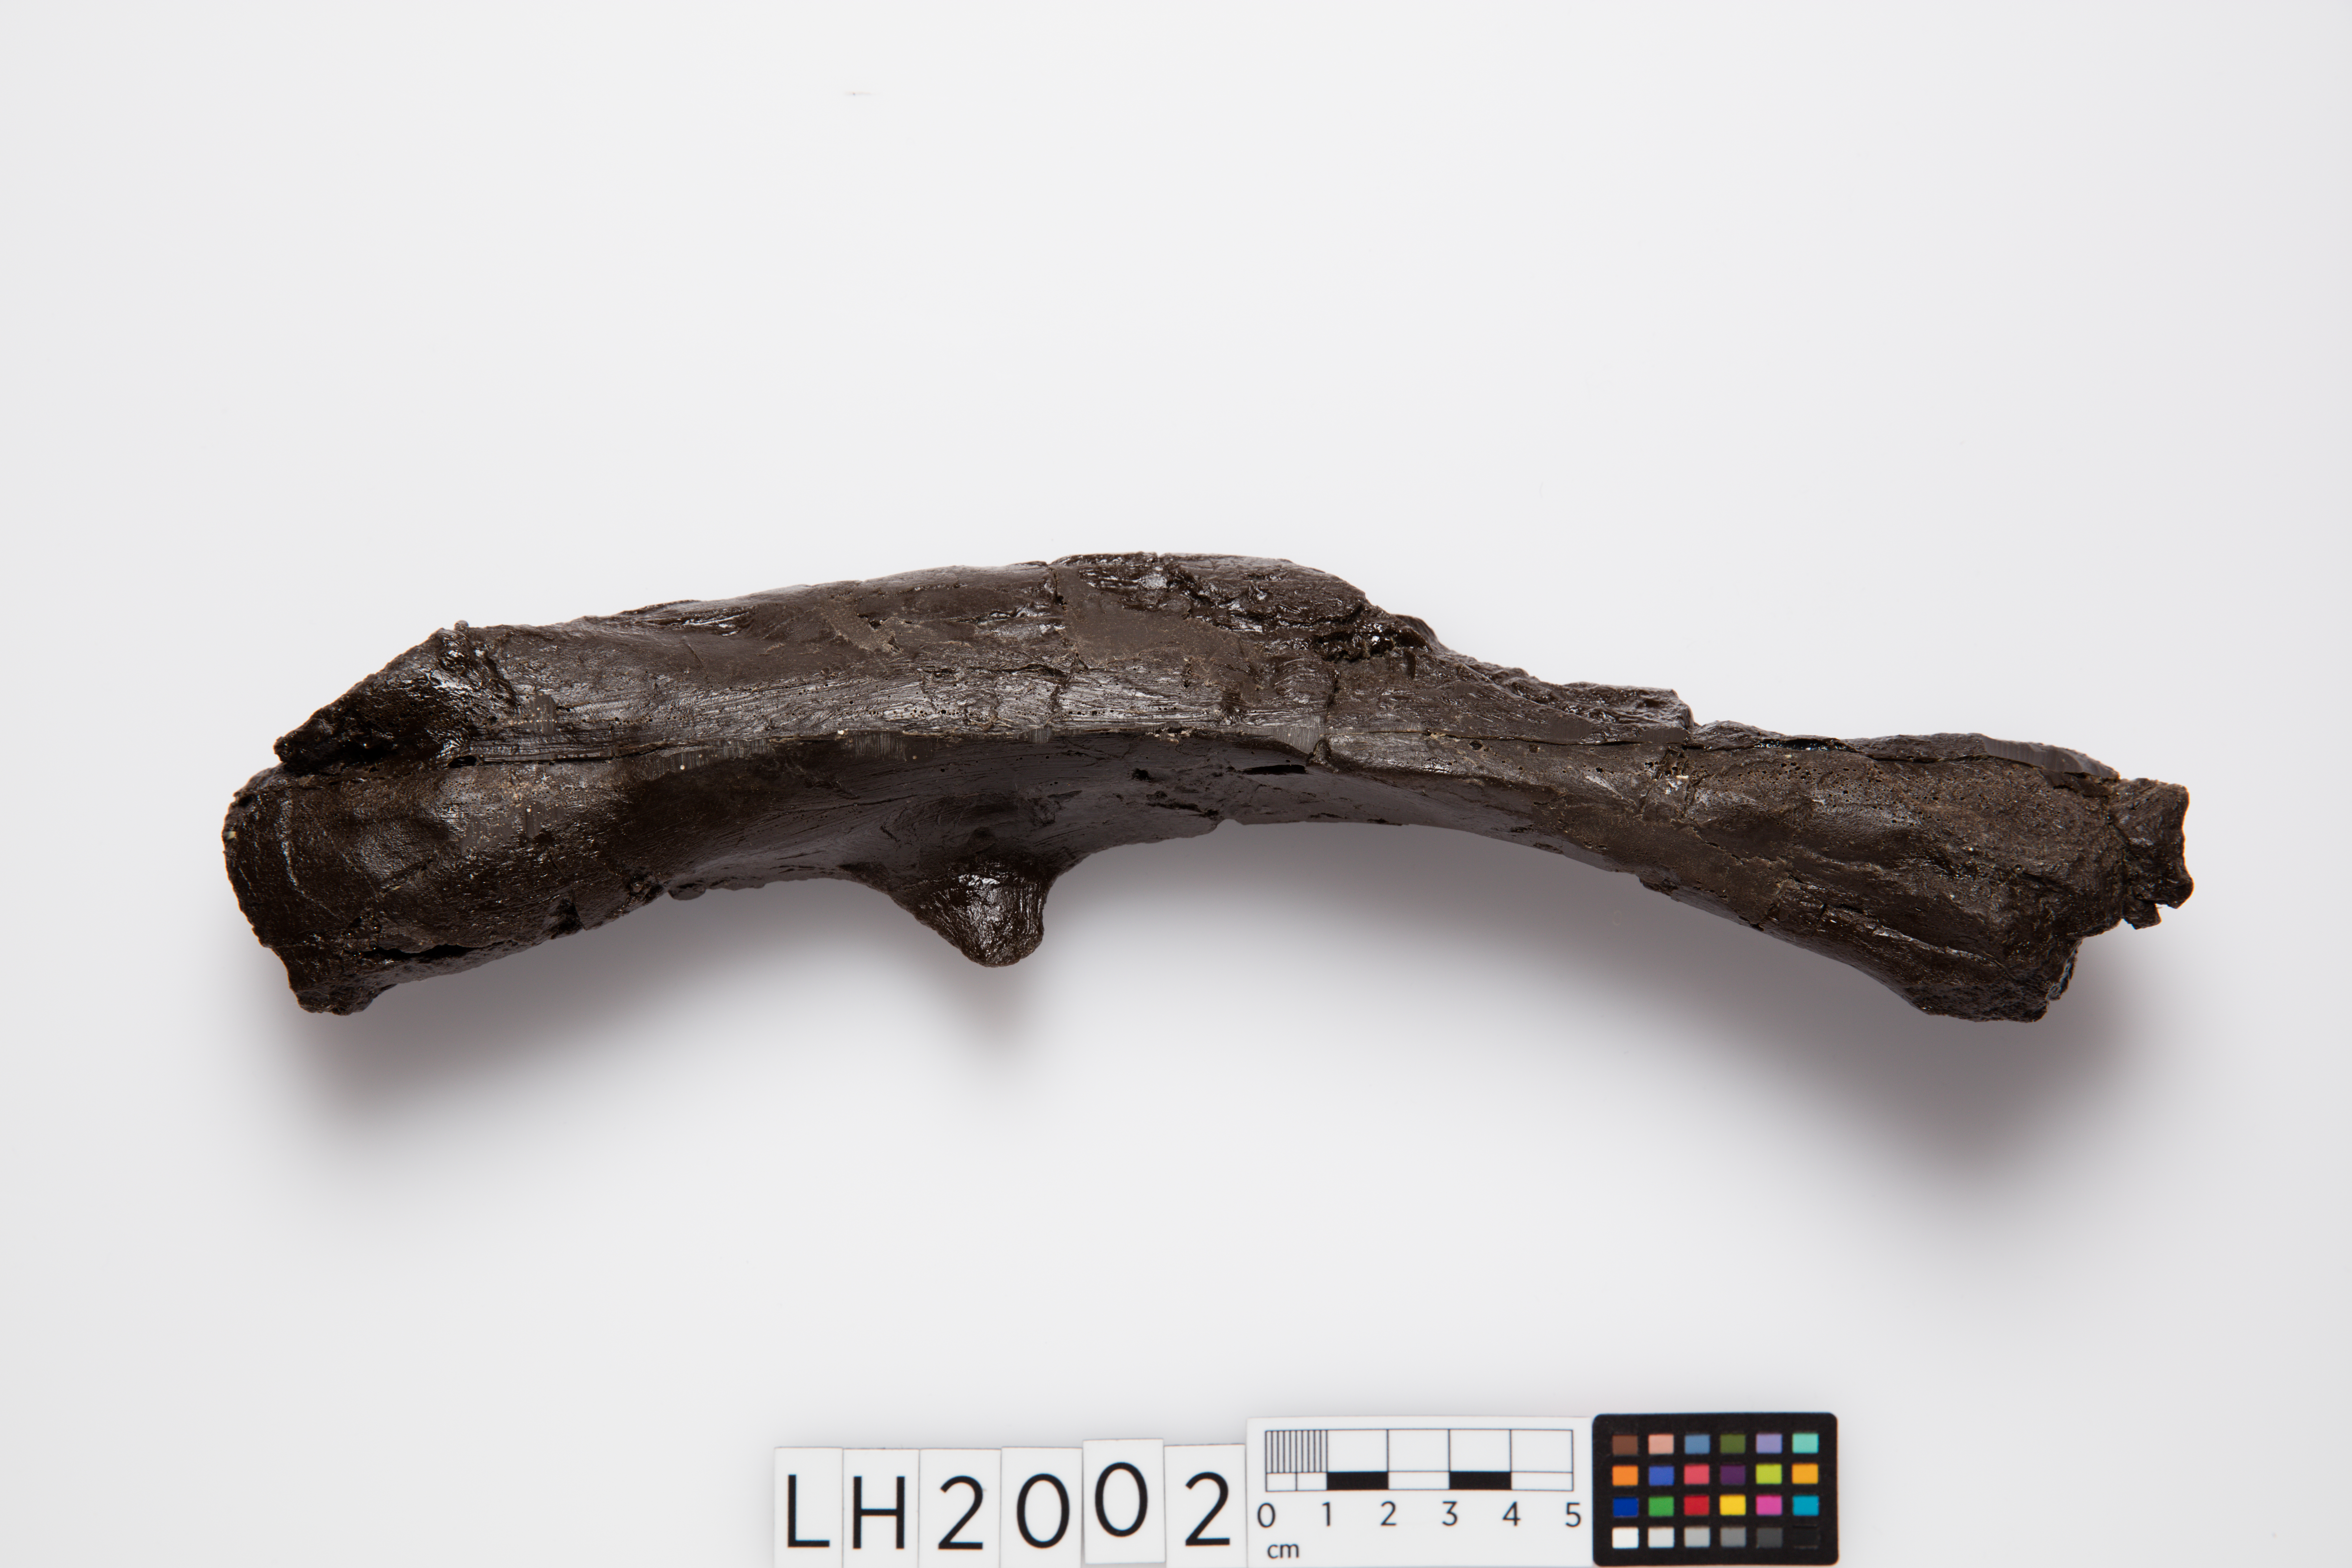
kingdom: Animalia
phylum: Chordata
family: Hypsilophodontidae
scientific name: Hypsilophodontidae
